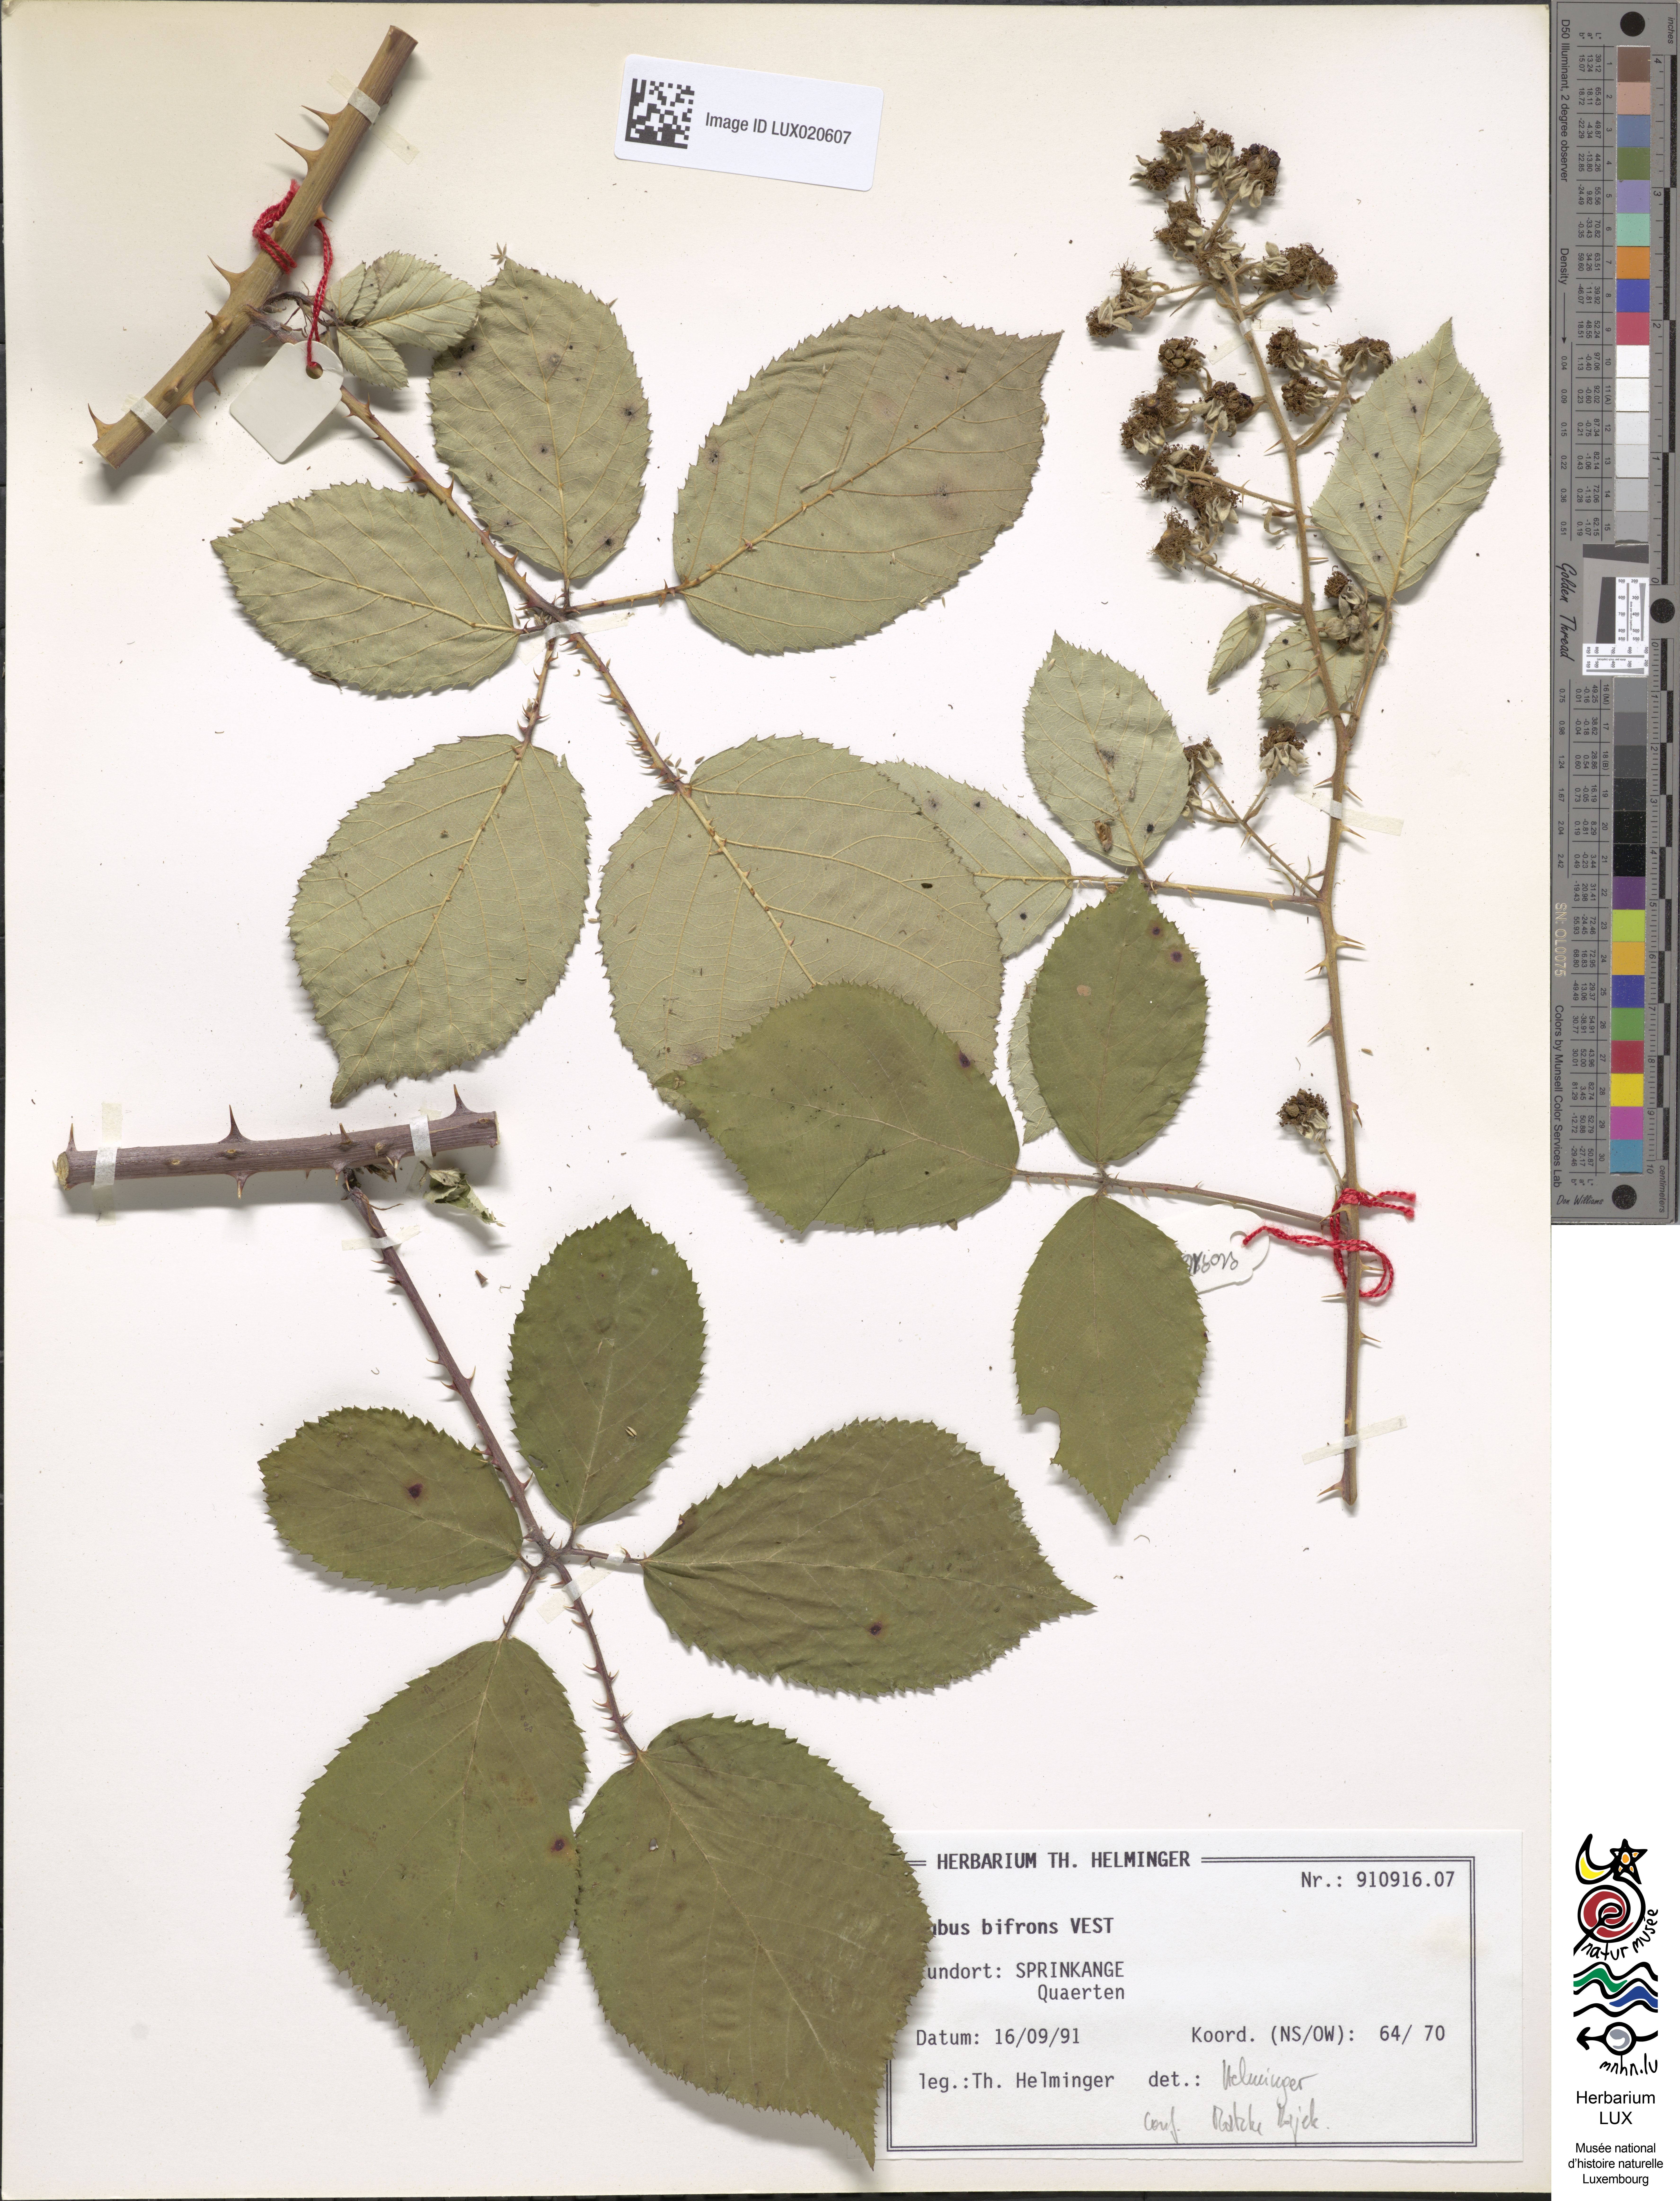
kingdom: Plantae
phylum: Tracheophyta
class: Magnoliopsida
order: Rosales
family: Rosaceae
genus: Rubus
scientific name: Rubus bifrons
